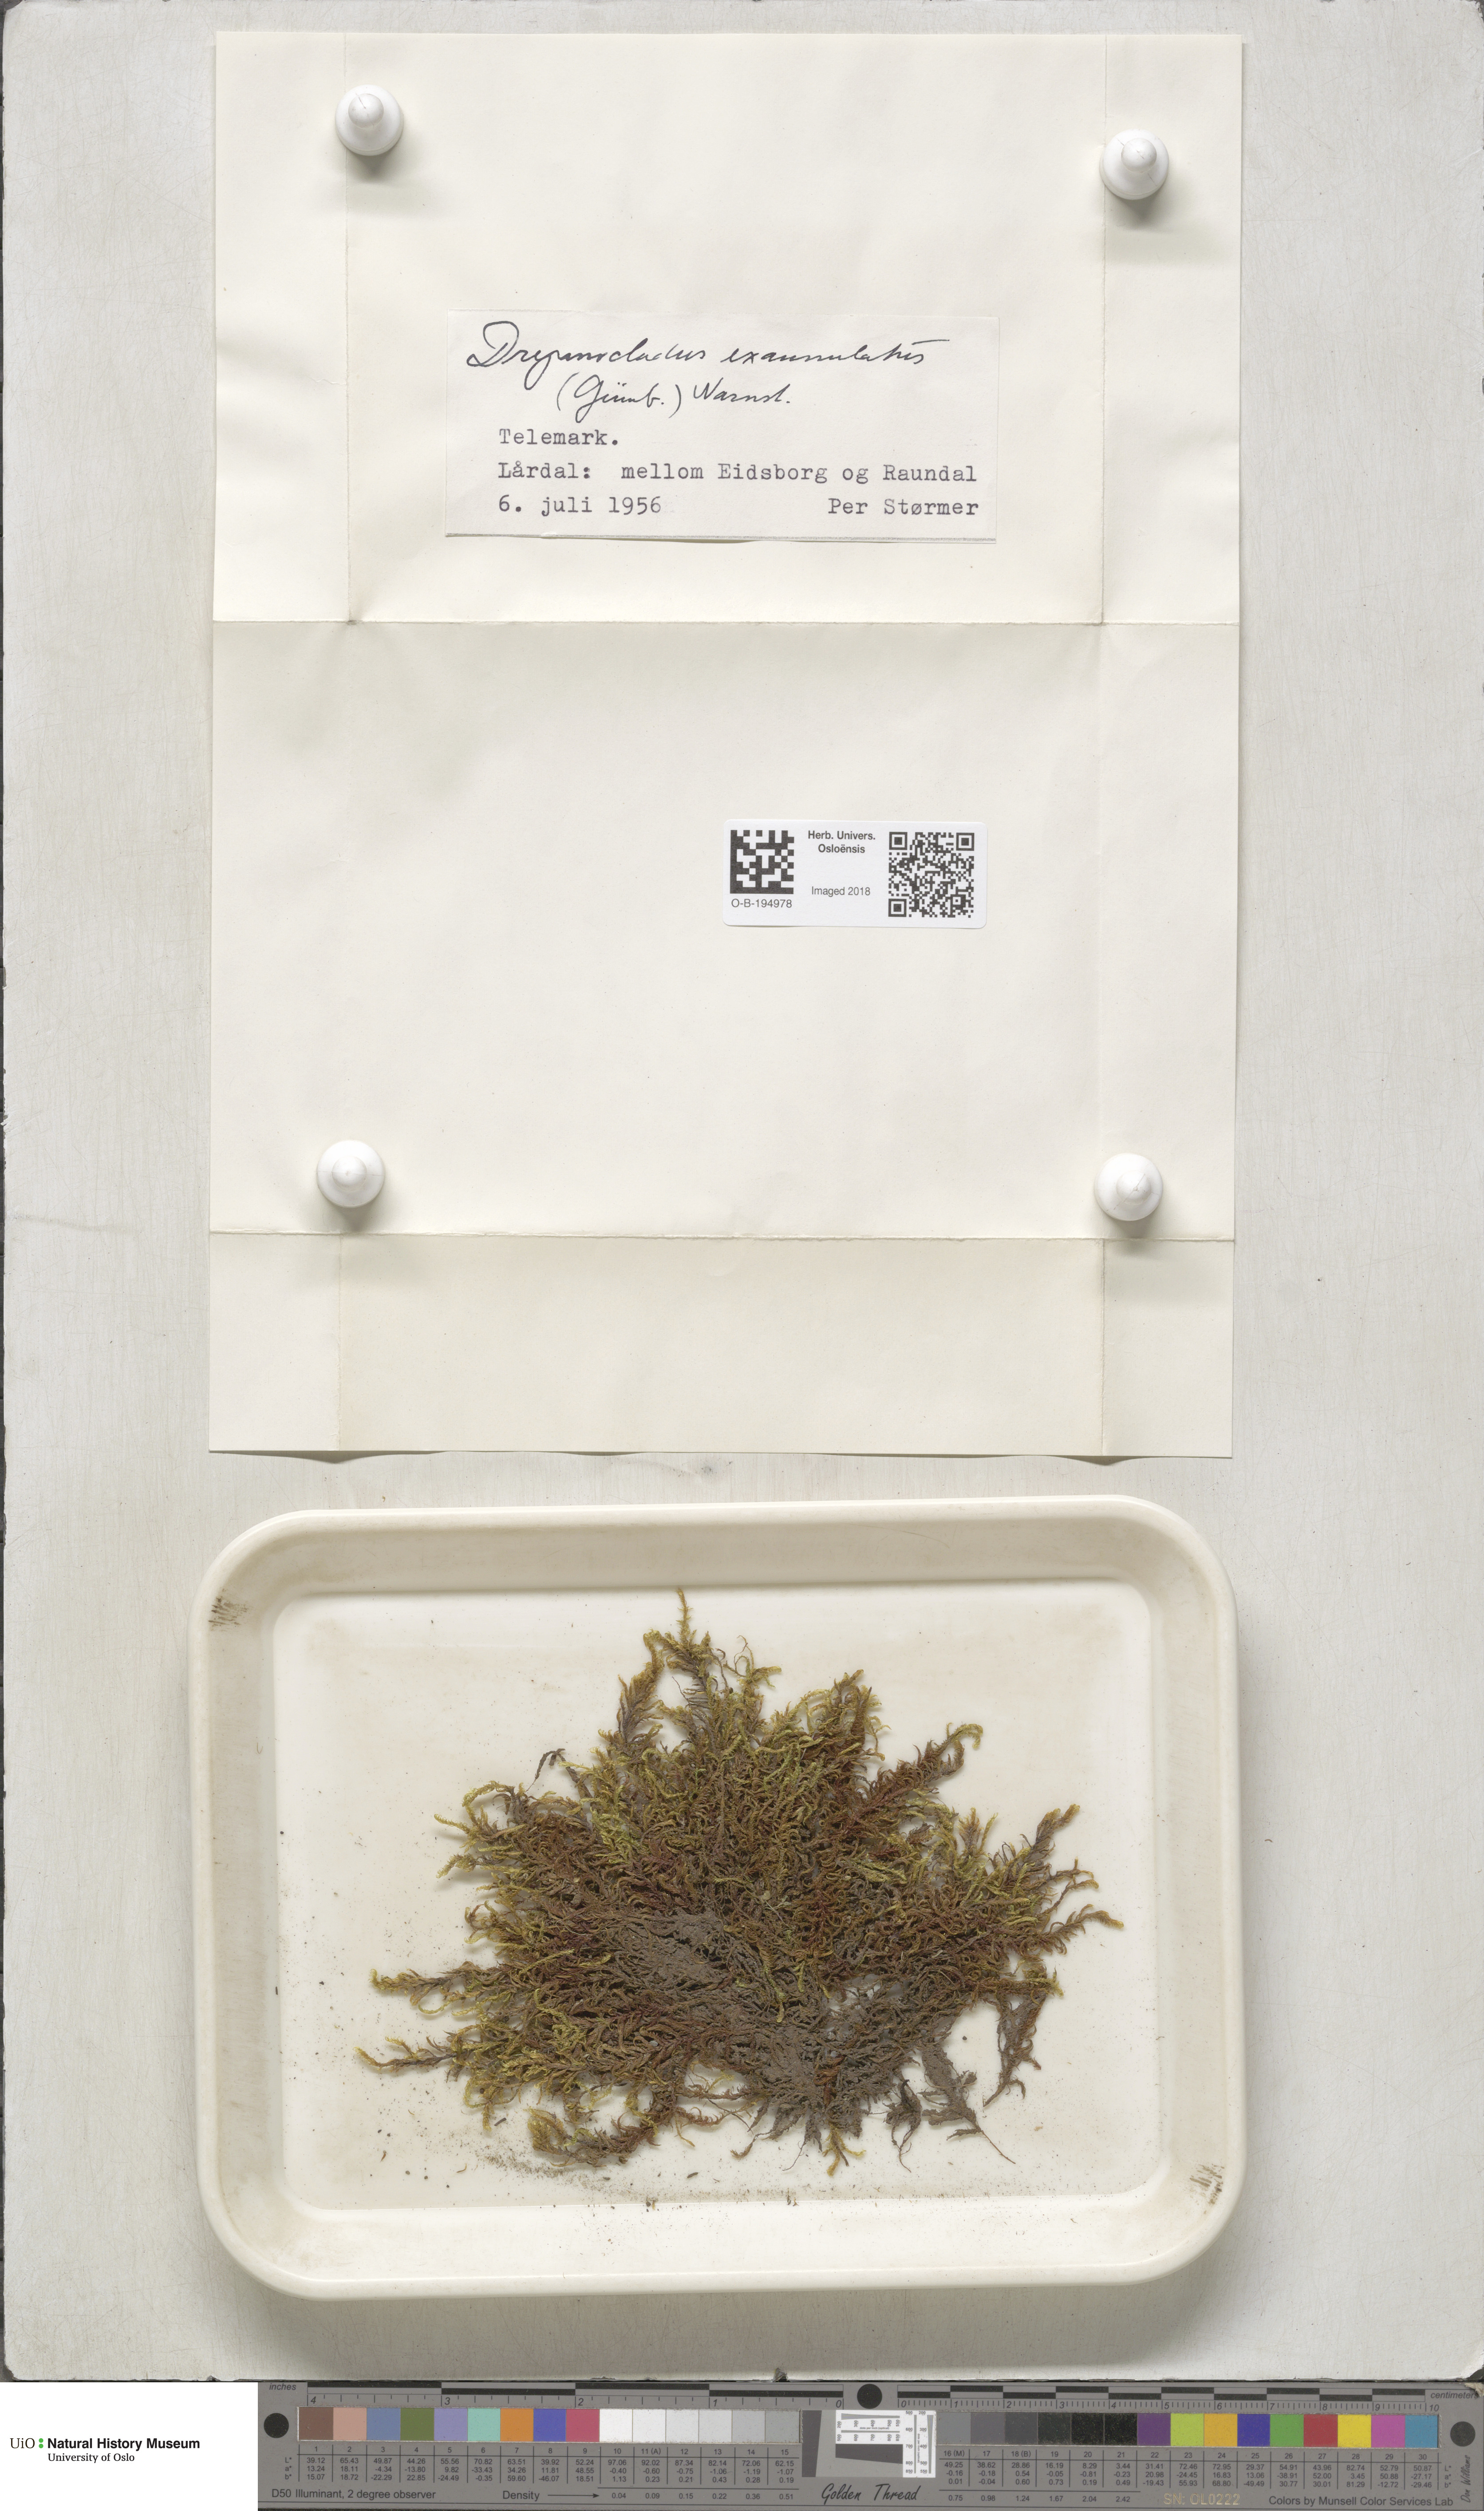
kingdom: Plantae
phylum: Bryophyta
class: Bryopsida
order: Hypnales
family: Calliergonaceae
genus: Sarmentypnum
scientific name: Sarmentypnum exannulatum
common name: Ringless spoon moss
